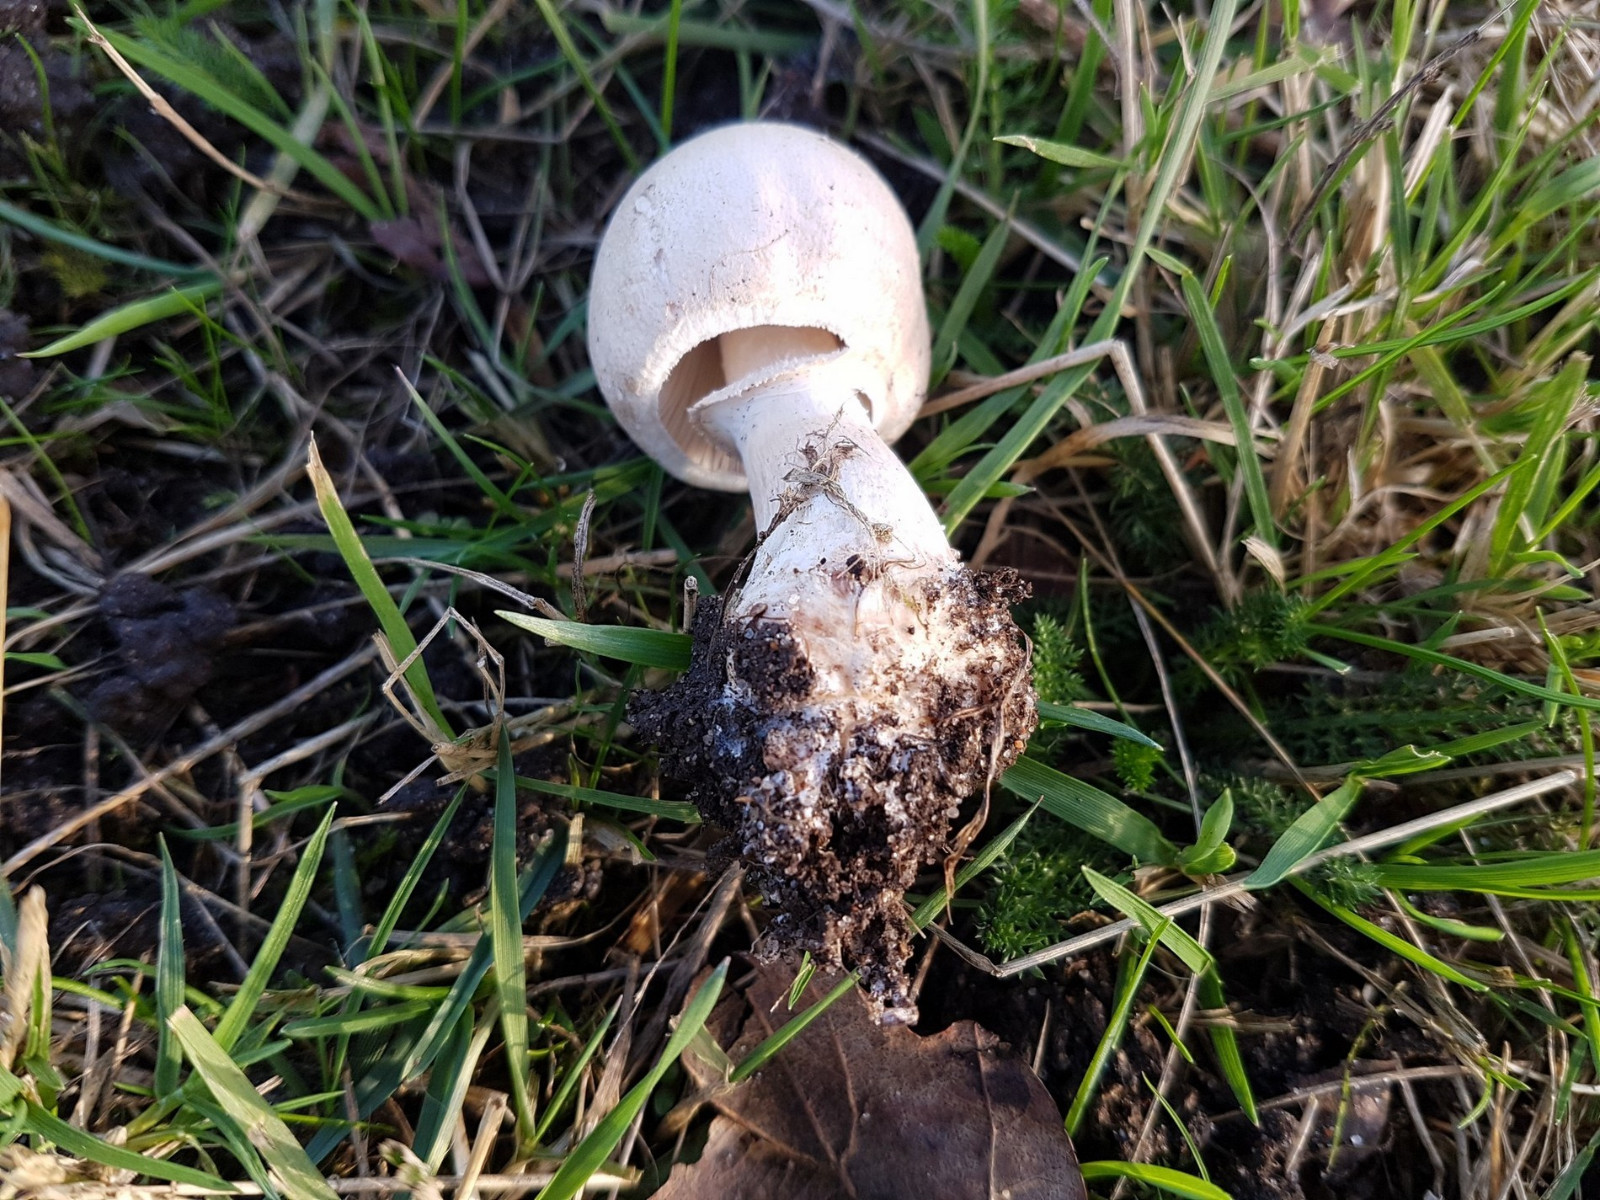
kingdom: Fungi
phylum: Basidiomycota
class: Agaricomycetes
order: Agaricales
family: Agaricaceae
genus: Macrolepiota
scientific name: Macrolepiota excoriata
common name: mark-kæmpeparasolhat
